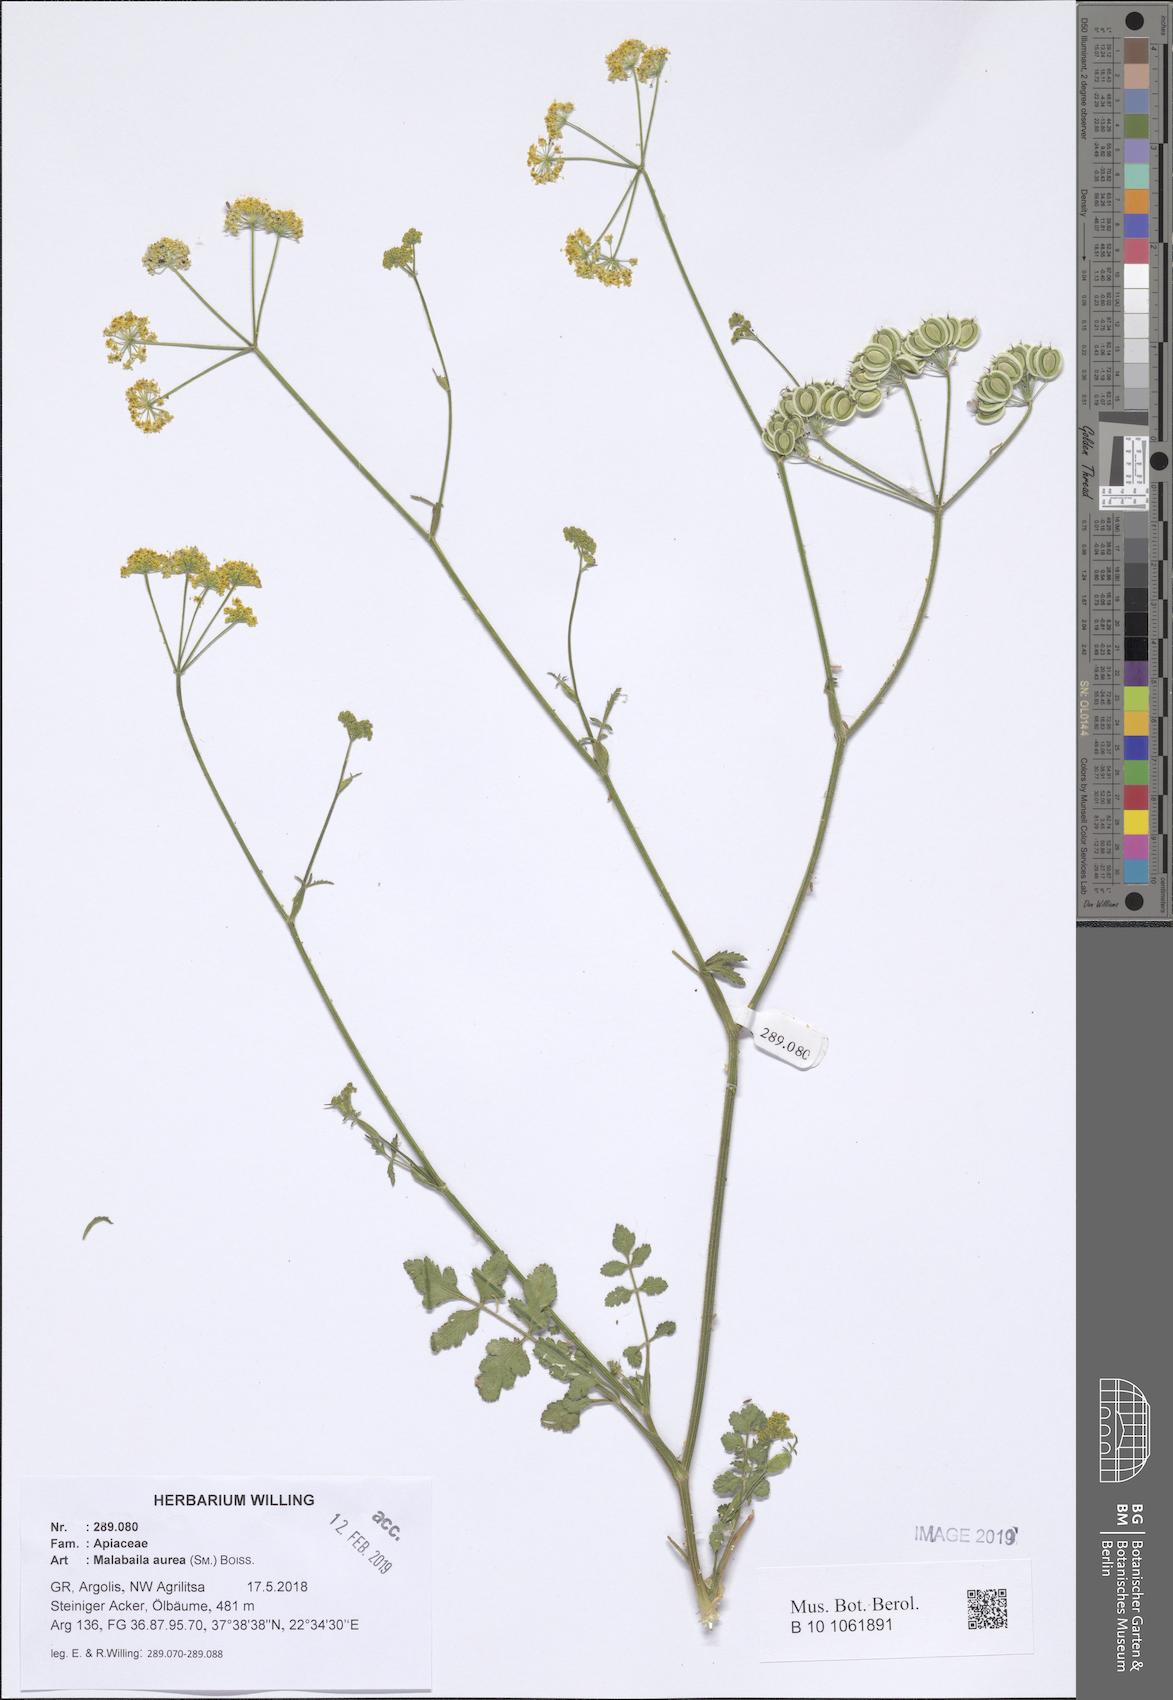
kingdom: Plantae
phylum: Tracheophyta
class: Magnoliopsida
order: Apiales
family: Apiaceae
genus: Leiotulus
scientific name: Leiotulus aureus
